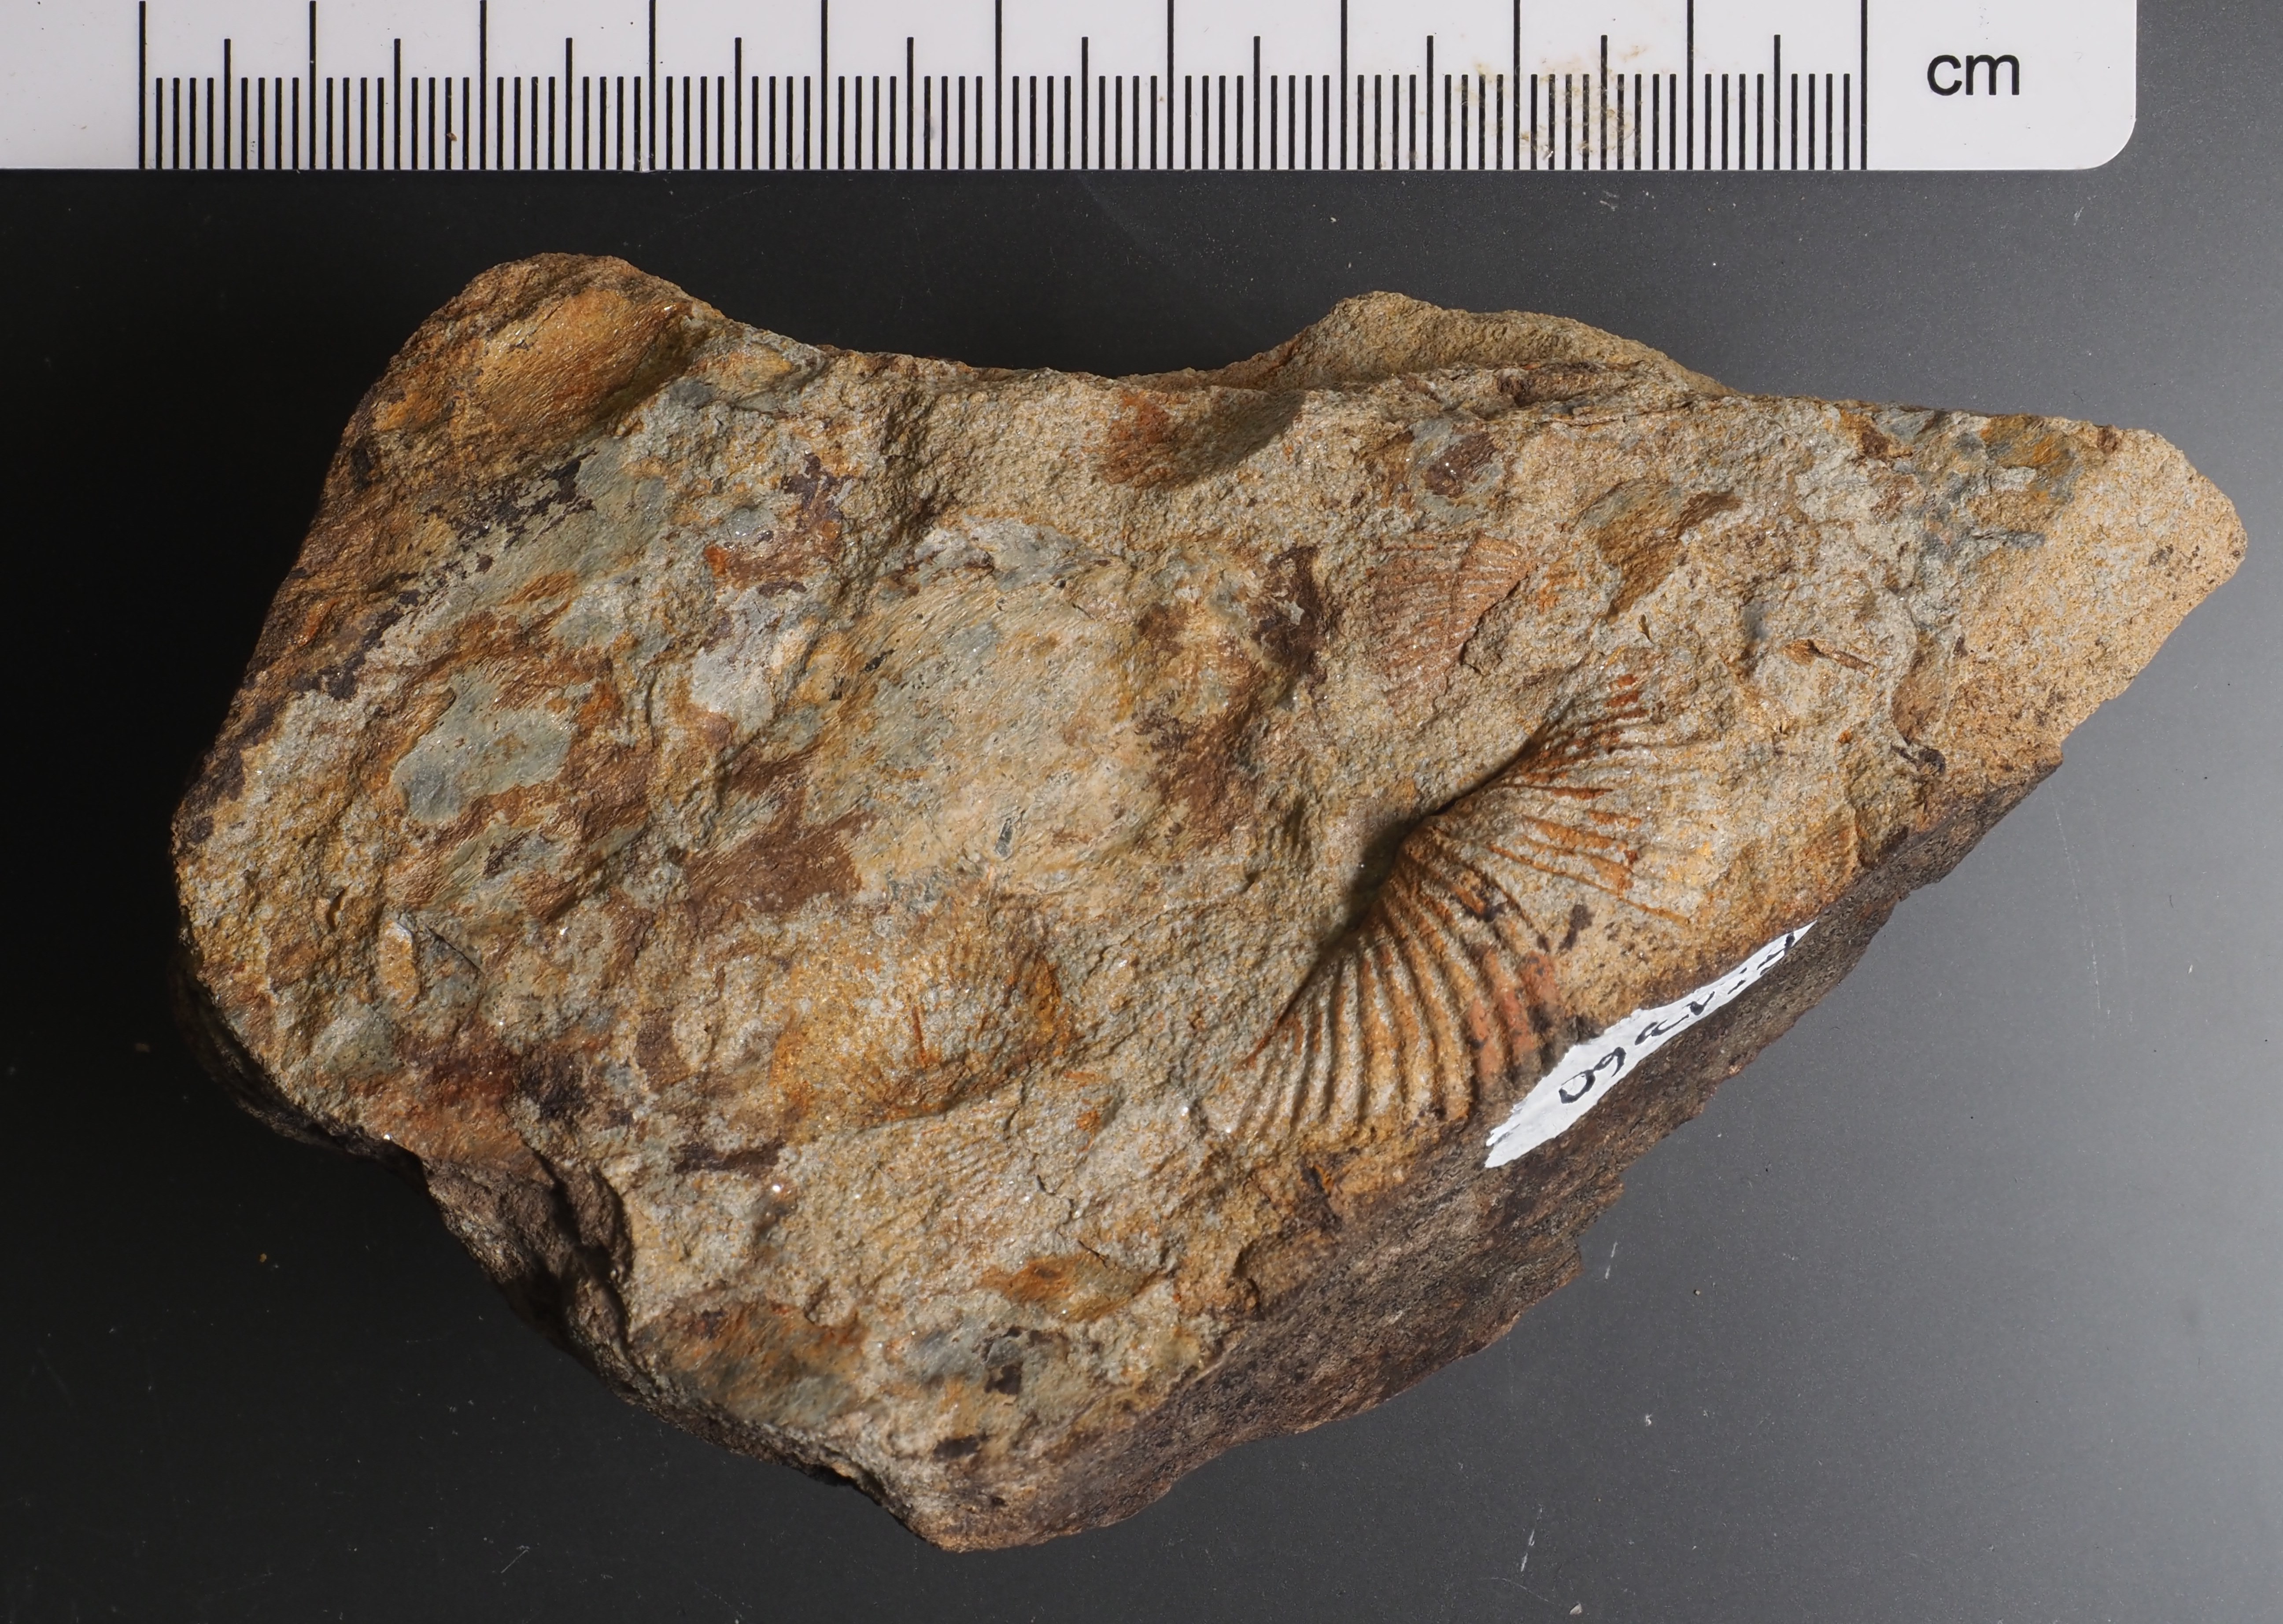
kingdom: Animalia
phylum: Brachiopoda
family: Eodevonariidae
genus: Loreleiella
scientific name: Loreleiella
